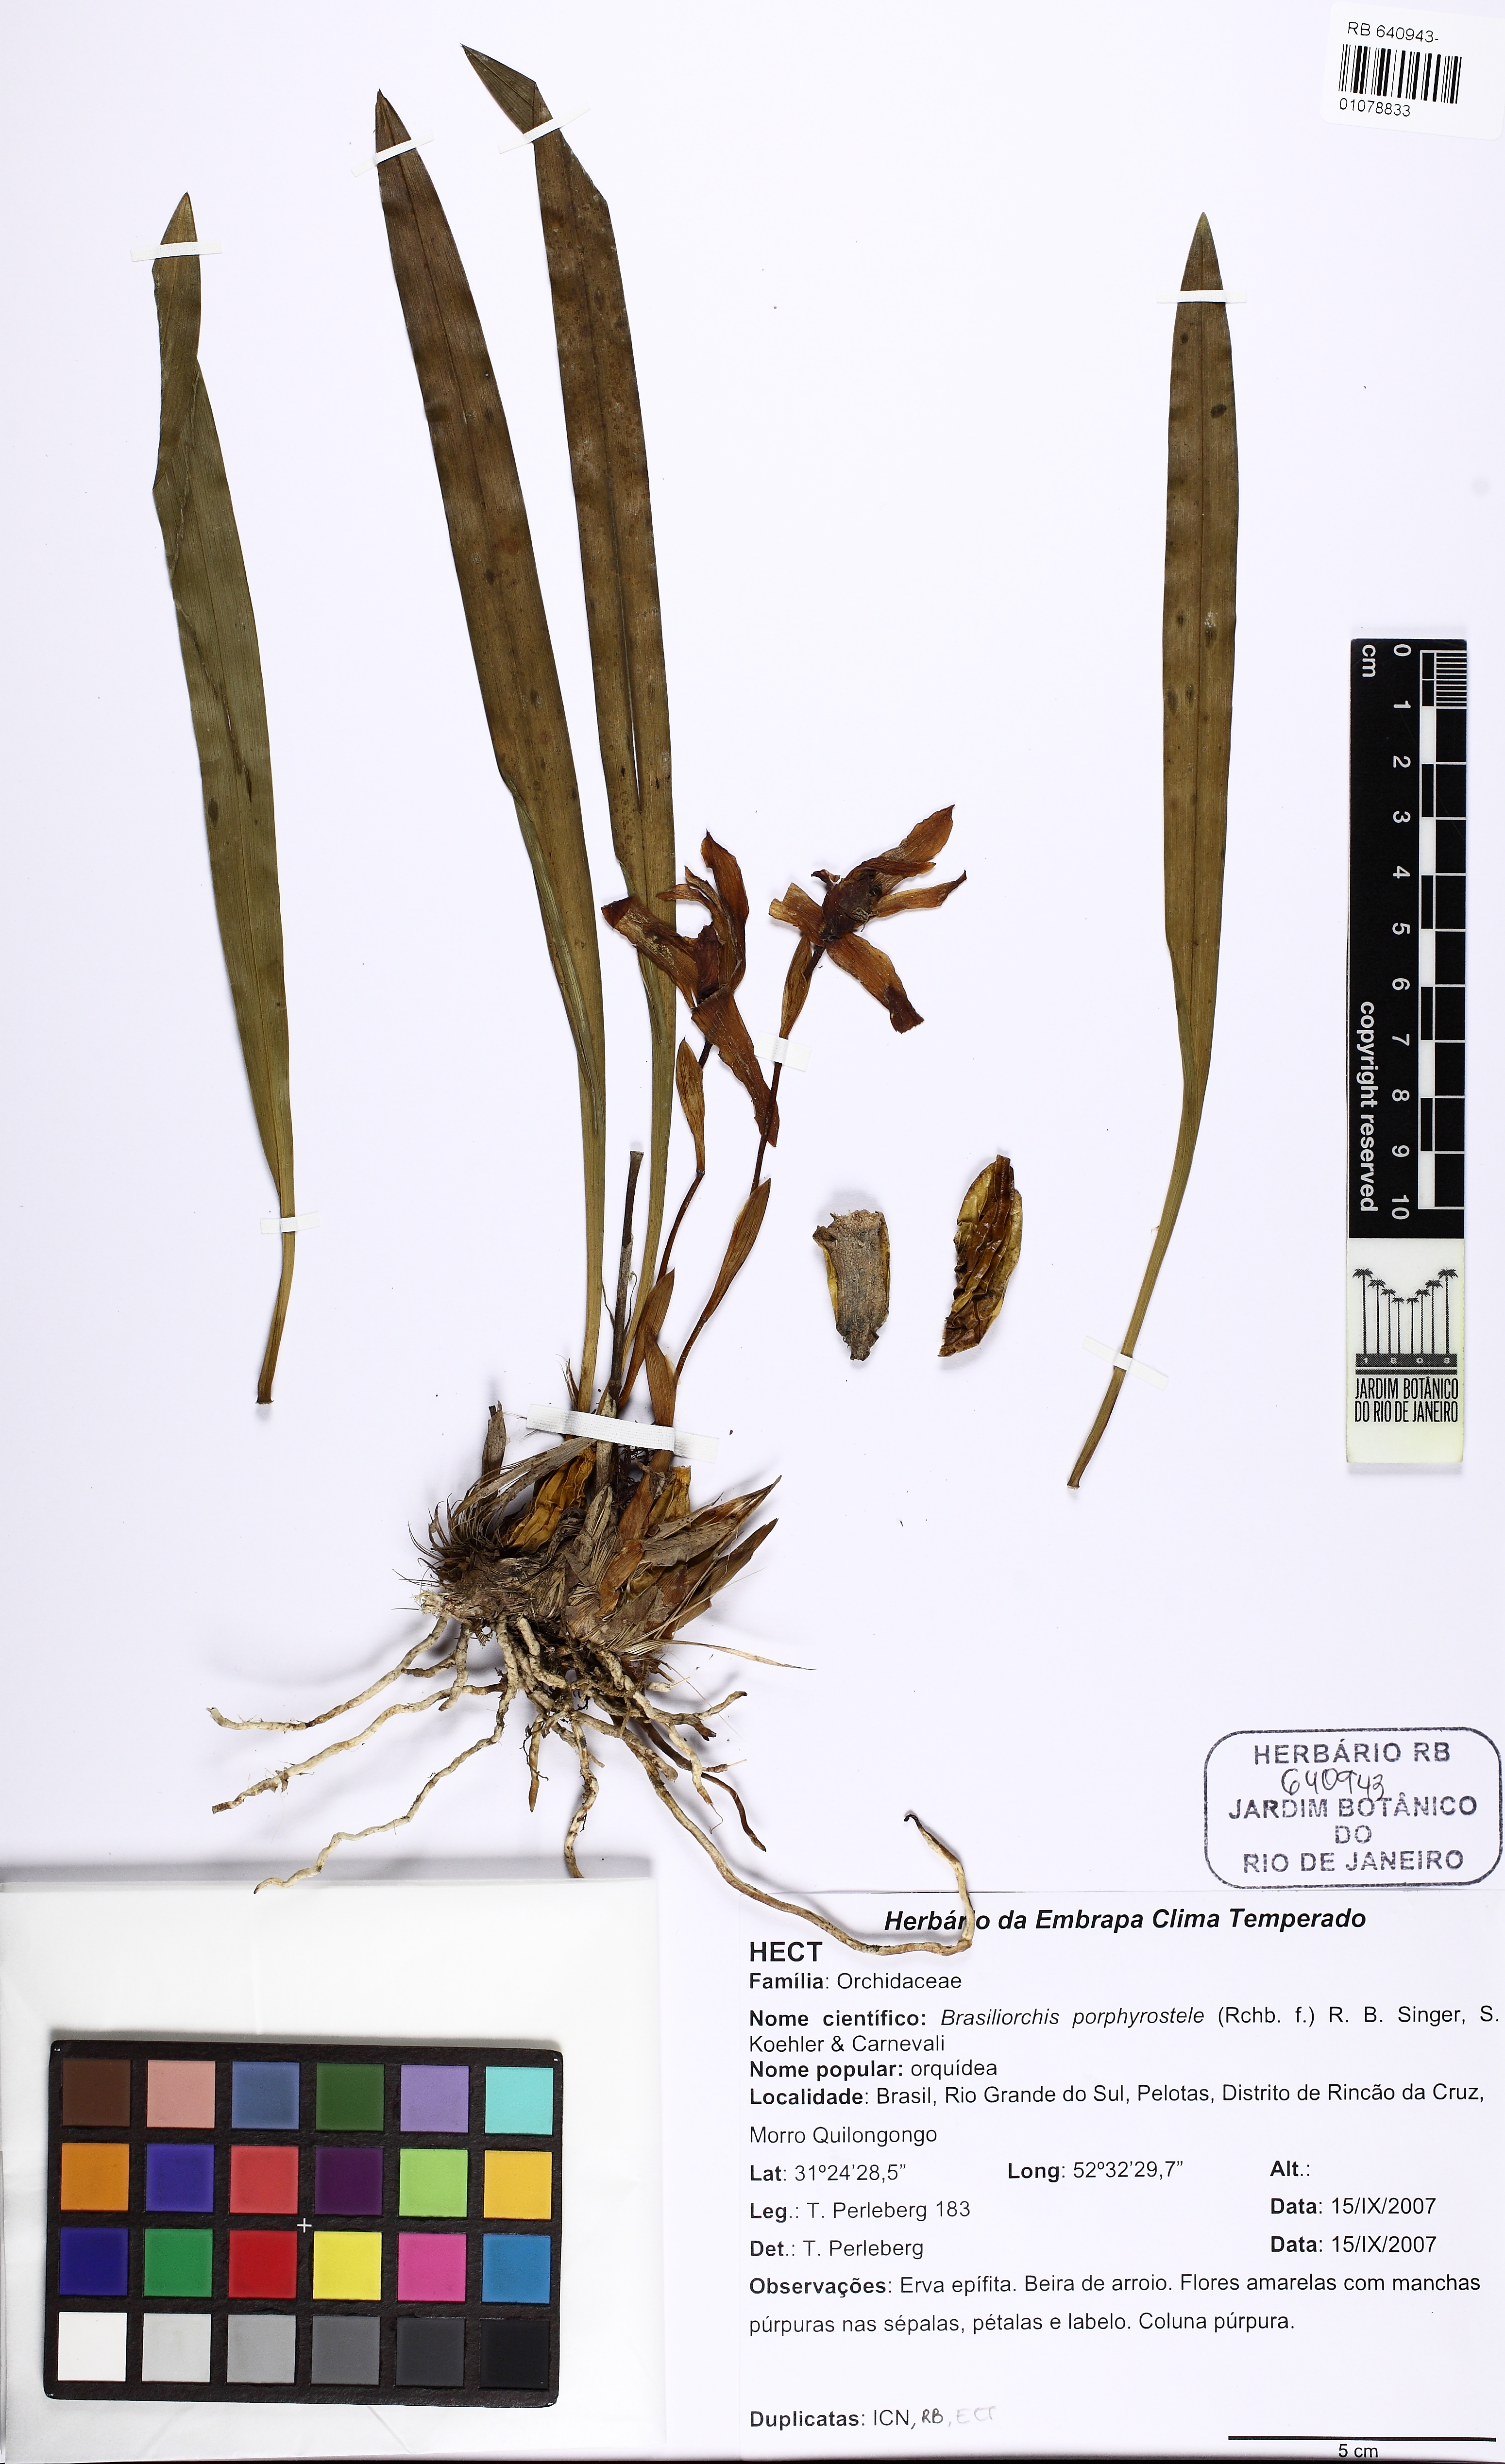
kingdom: Plantae
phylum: Tracheophyta
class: Liliopsida
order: Asparagales
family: Orchidaceae
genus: Maxillaria
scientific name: Maxillaria porphyrostele
